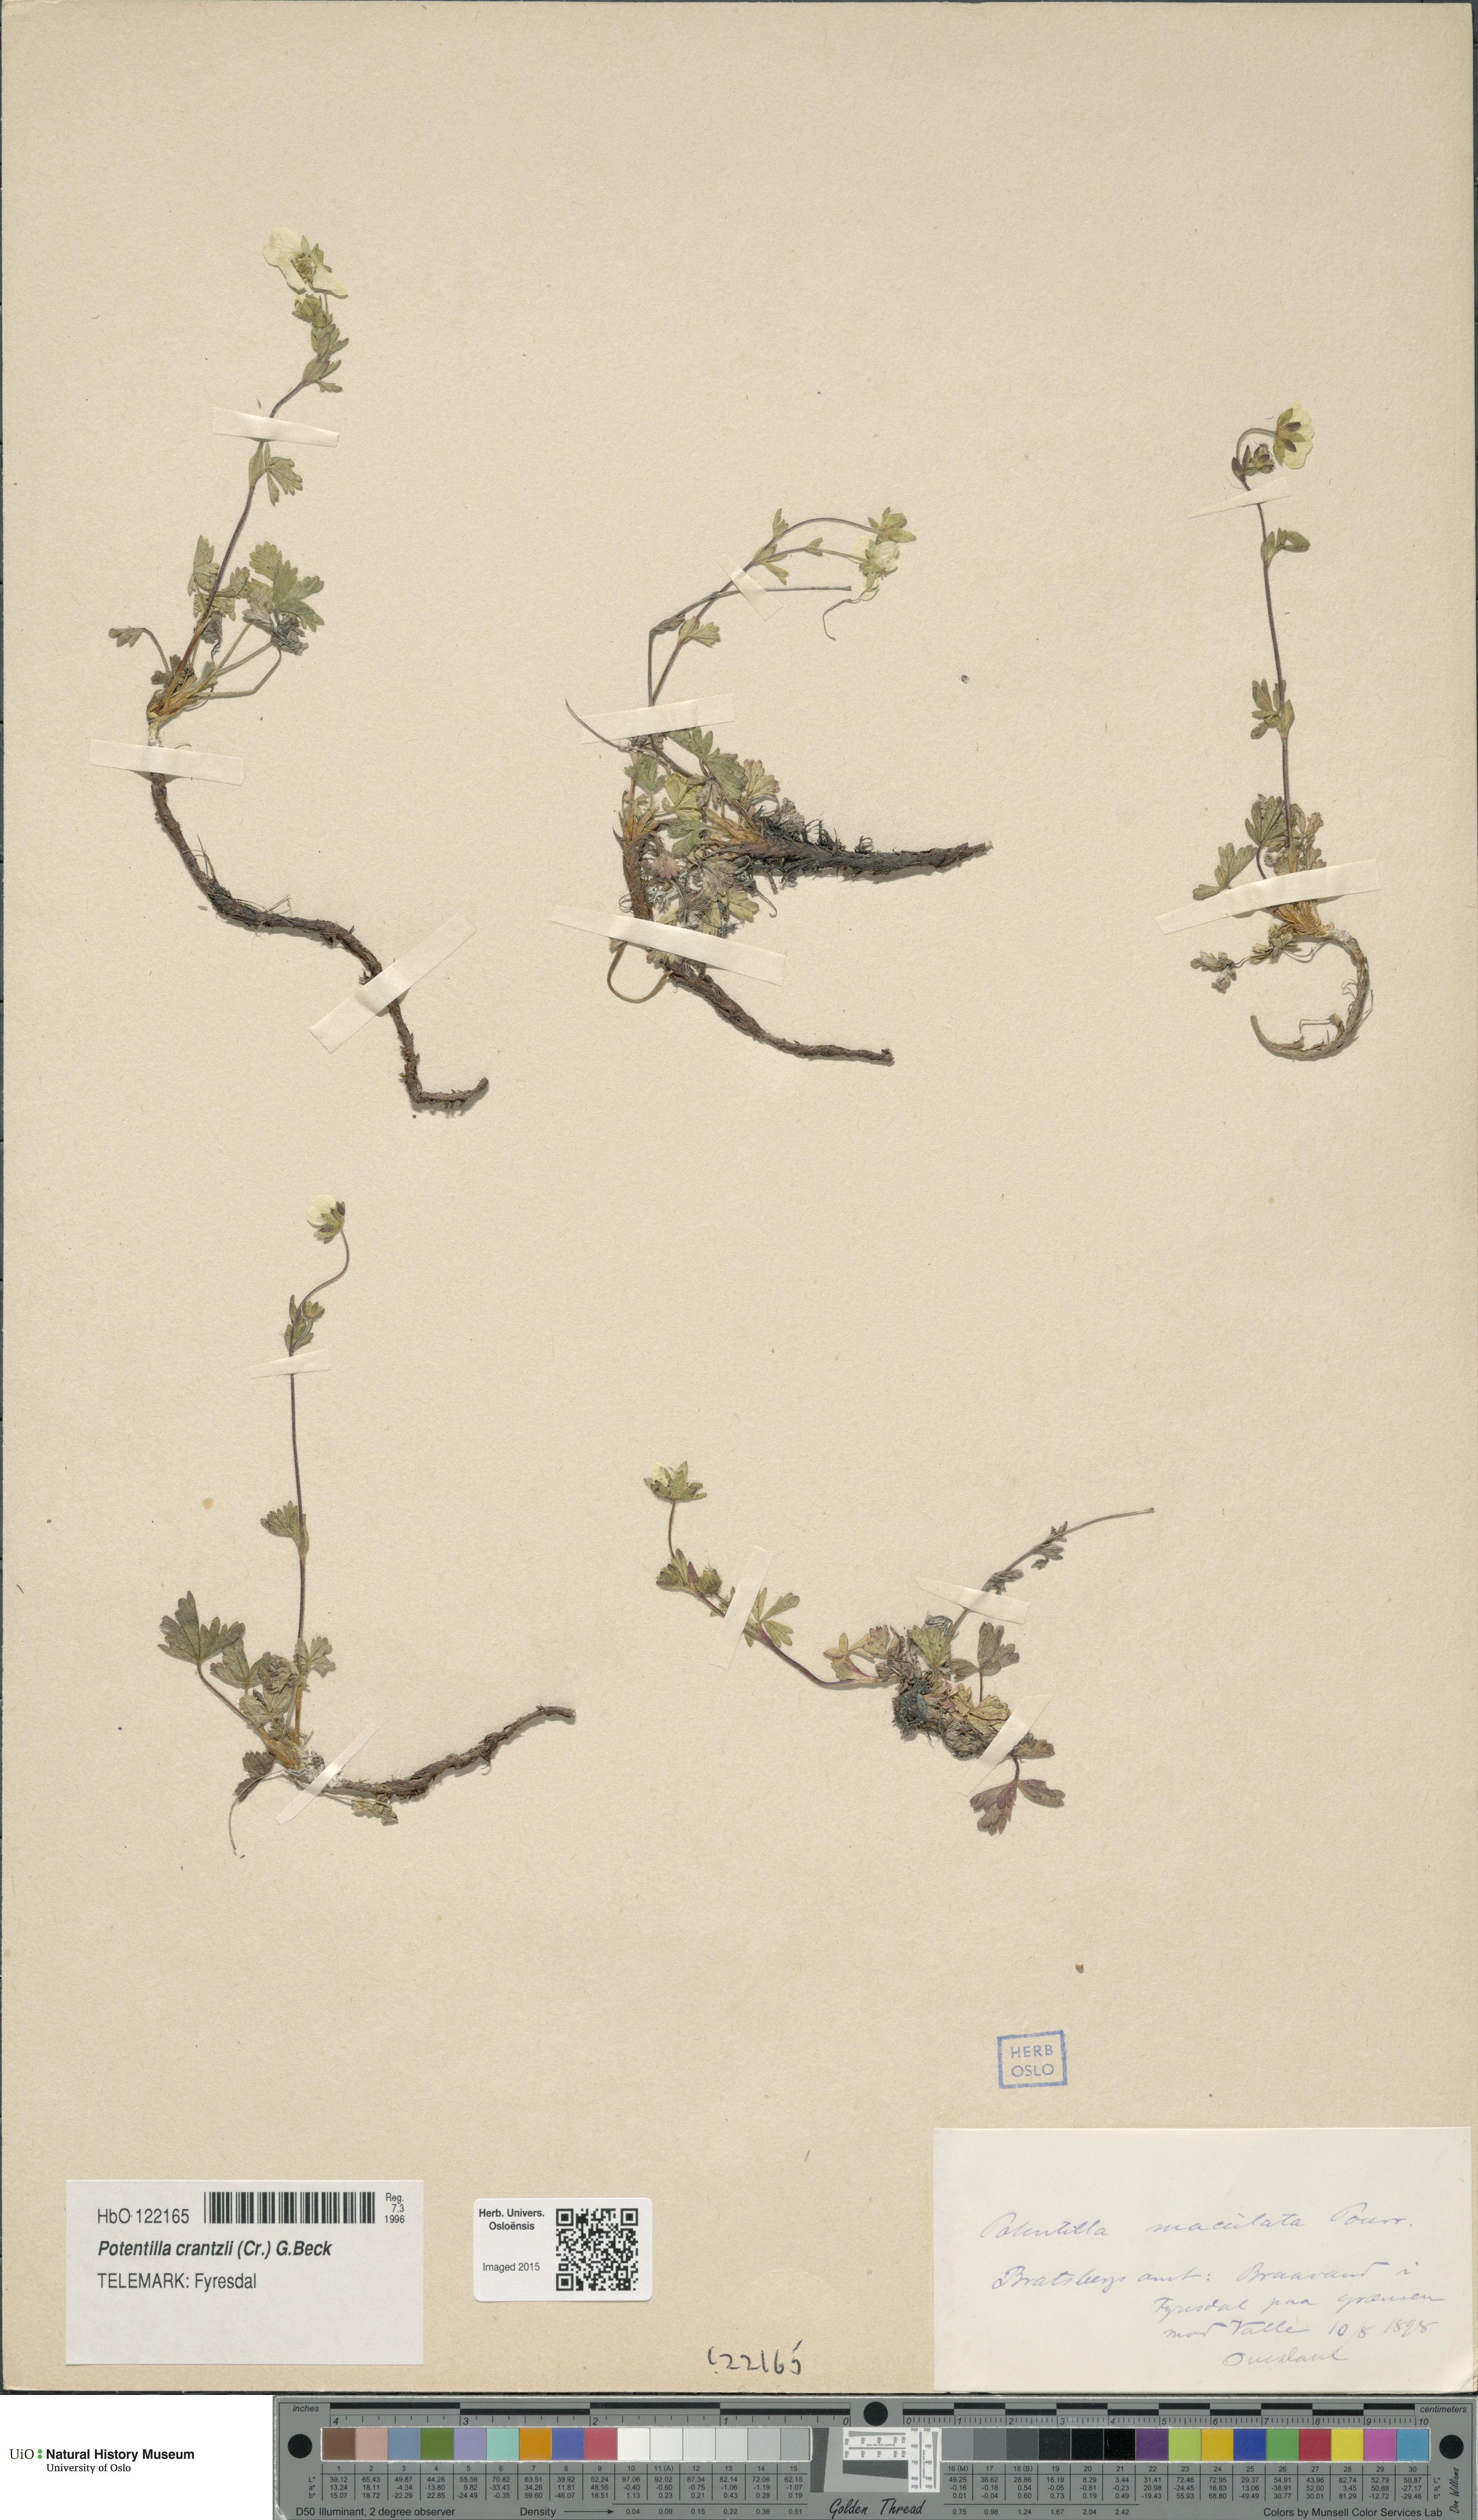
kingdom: Plantae
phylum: Tracheophyta
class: Magnoliopsida
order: Rosales
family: Rosaceae
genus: Potentilla
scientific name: Potentilla crantzii
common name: Alpine cinquefoil
